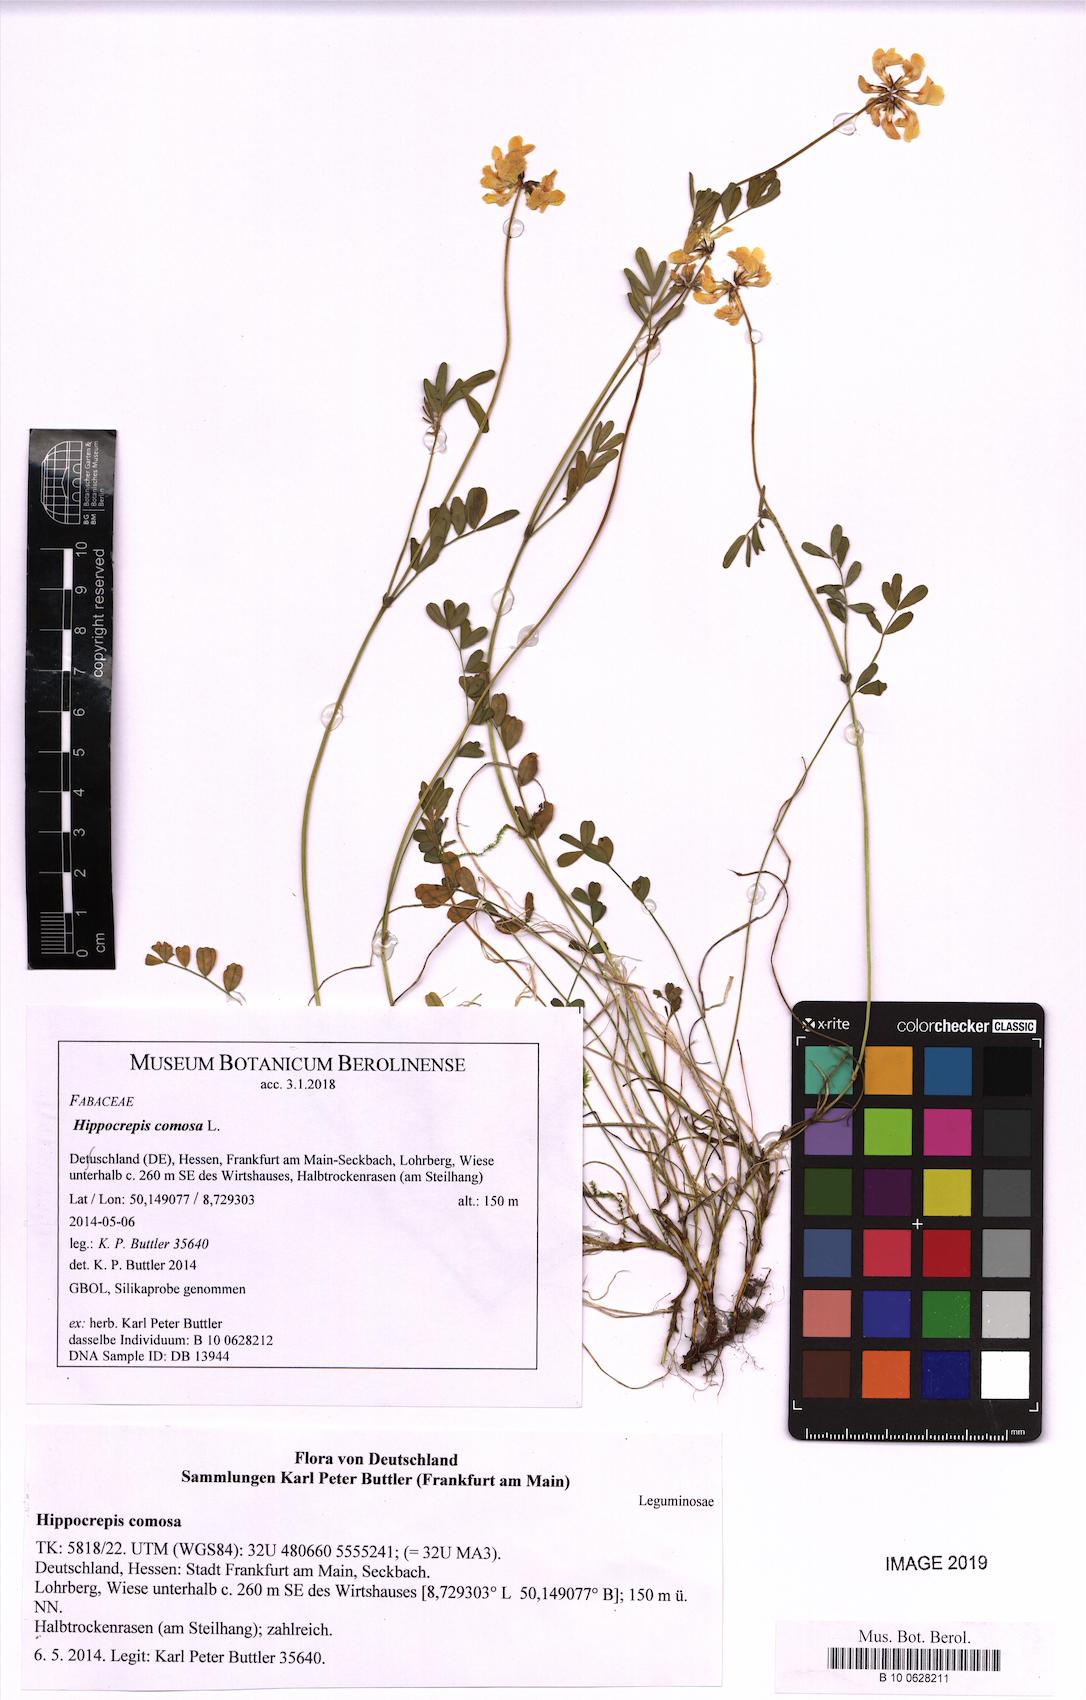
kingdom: Plantae
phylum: Tracheophyta
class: Magnoliopsida
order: Fabales
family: Fabaceae
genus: Hippocrepis
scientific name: Hippocrepis comosa
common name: Horseshoe vetch
